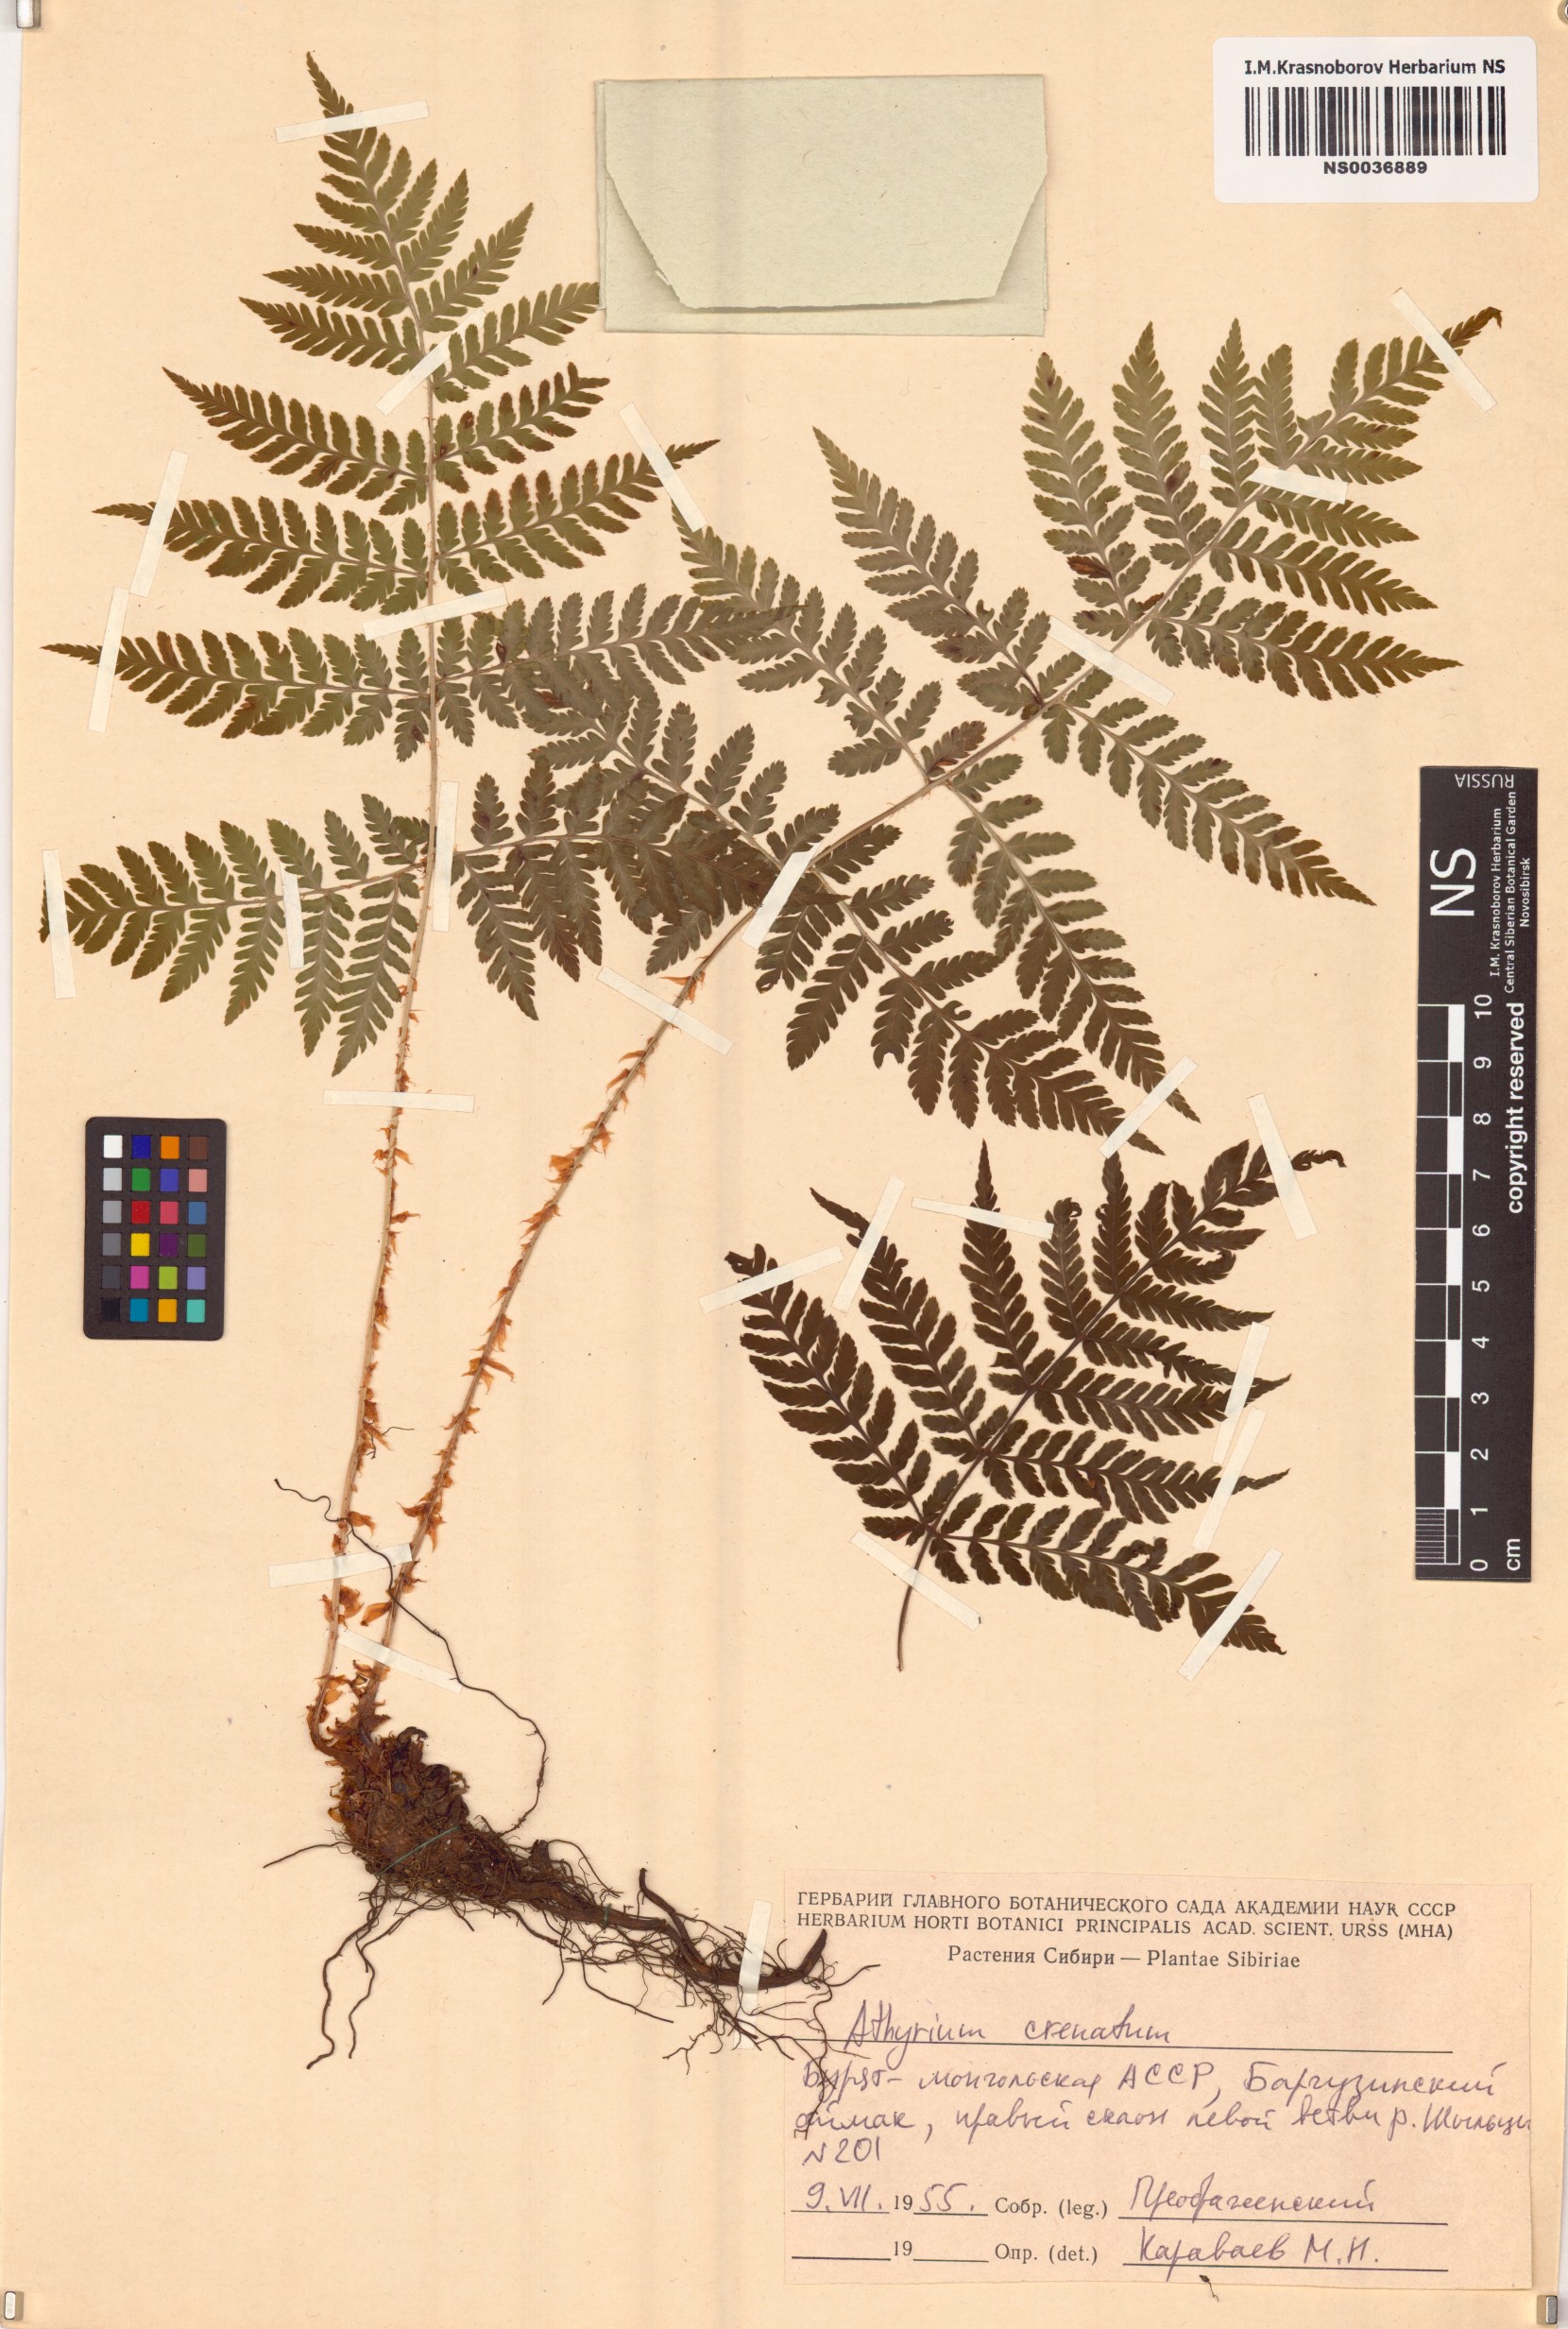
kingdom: Plantae
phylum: Tracheophyta
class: Polypodiopsida
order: Polypodiales
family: Athyriaceae
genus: Diplazium
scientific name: Diplazium sibiricum
